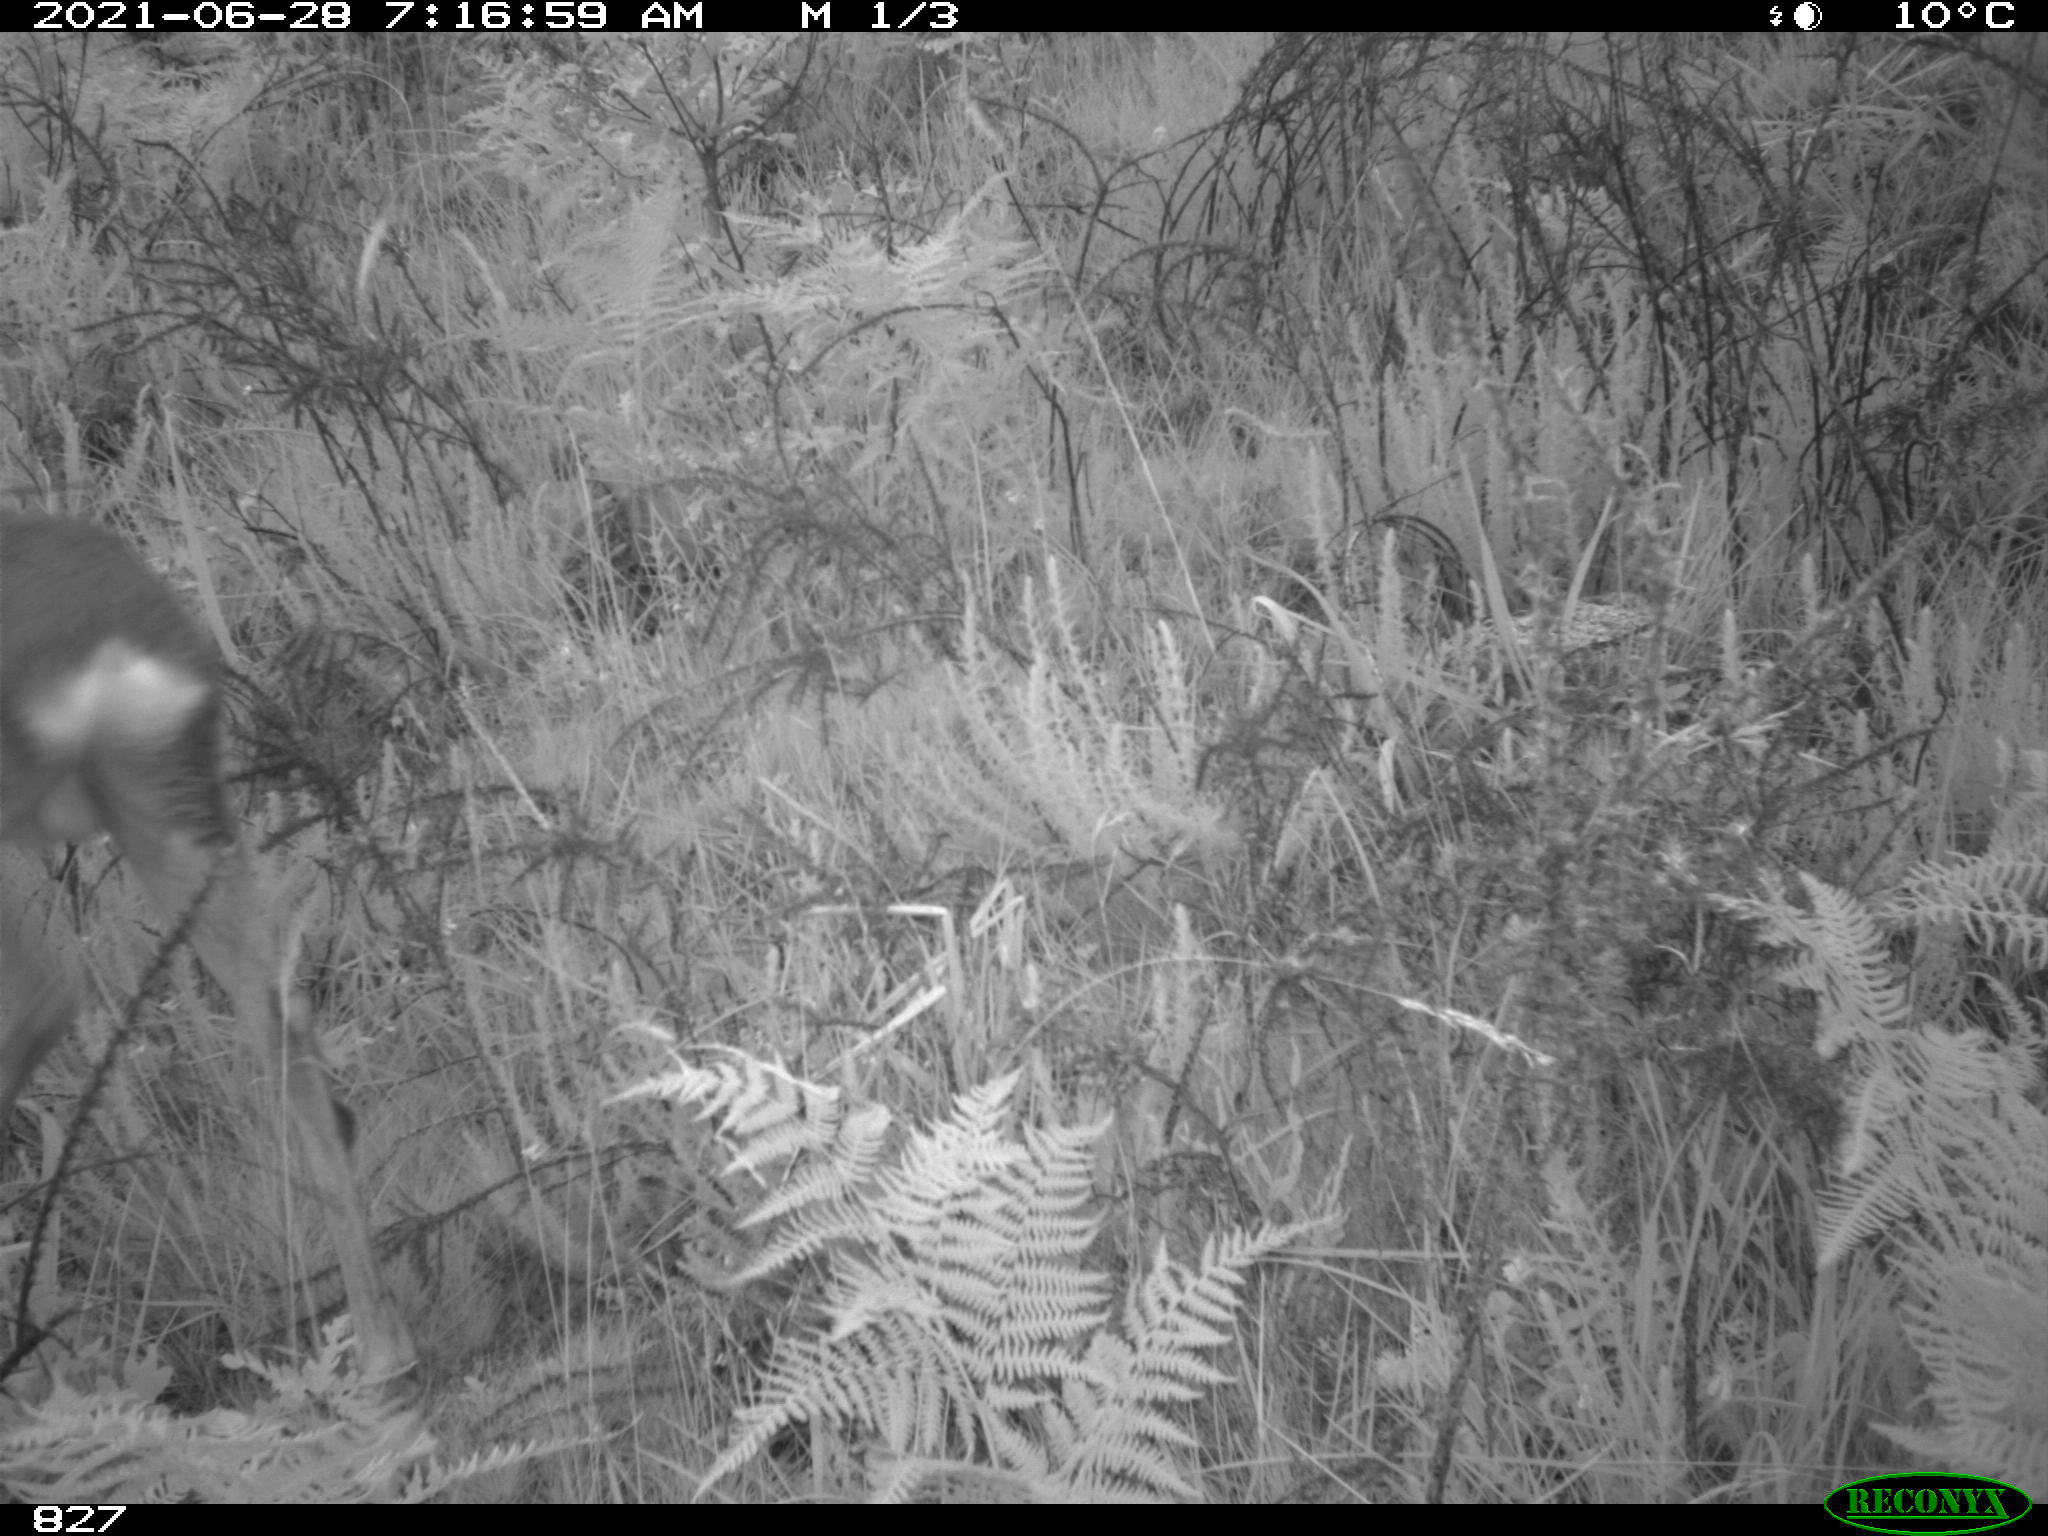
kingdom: Animalia
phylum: Chordata
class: Mammalia
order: Artiodactyla
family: Cervidae
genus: Capreolus
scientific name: Capreolus capreolus
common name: Western roe deer
